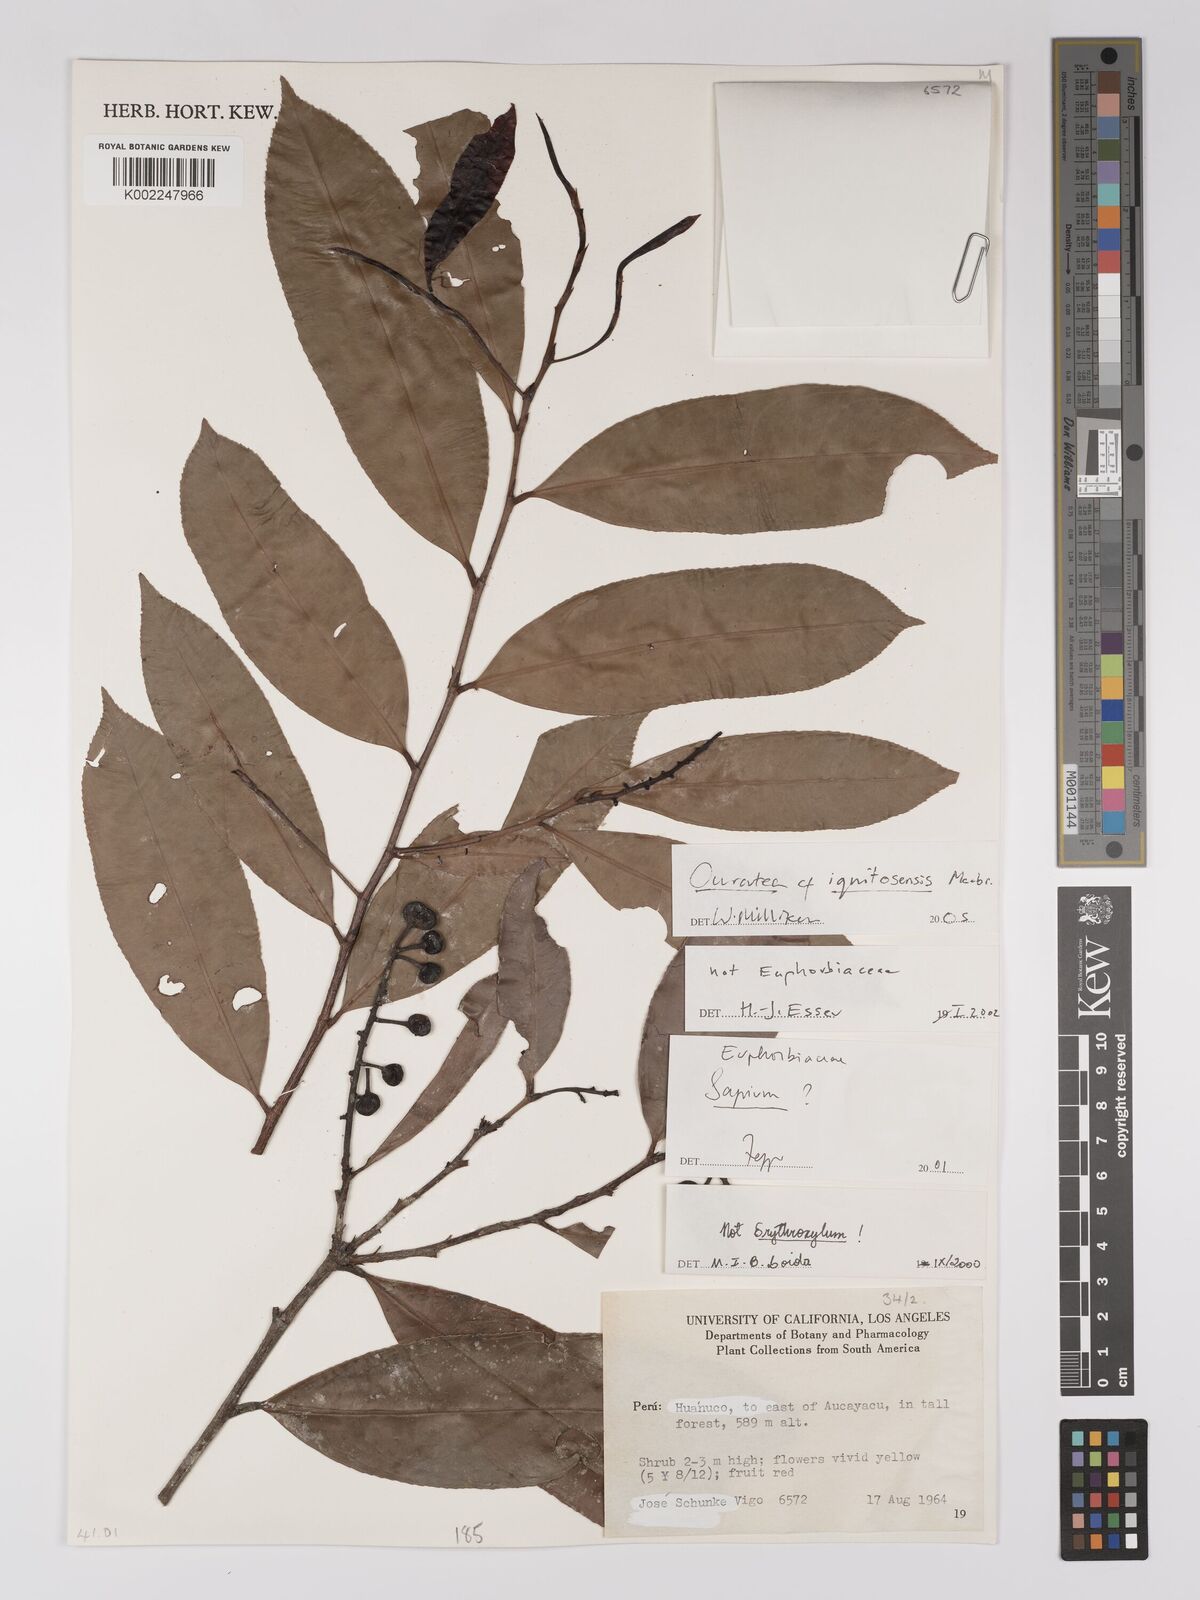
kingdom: Plantae
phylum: Tracheophyta
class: Magnoliopsida
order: Malpighiales
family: Ochnaceae
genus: Ouratea
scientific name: Ouratea iquitosensis
